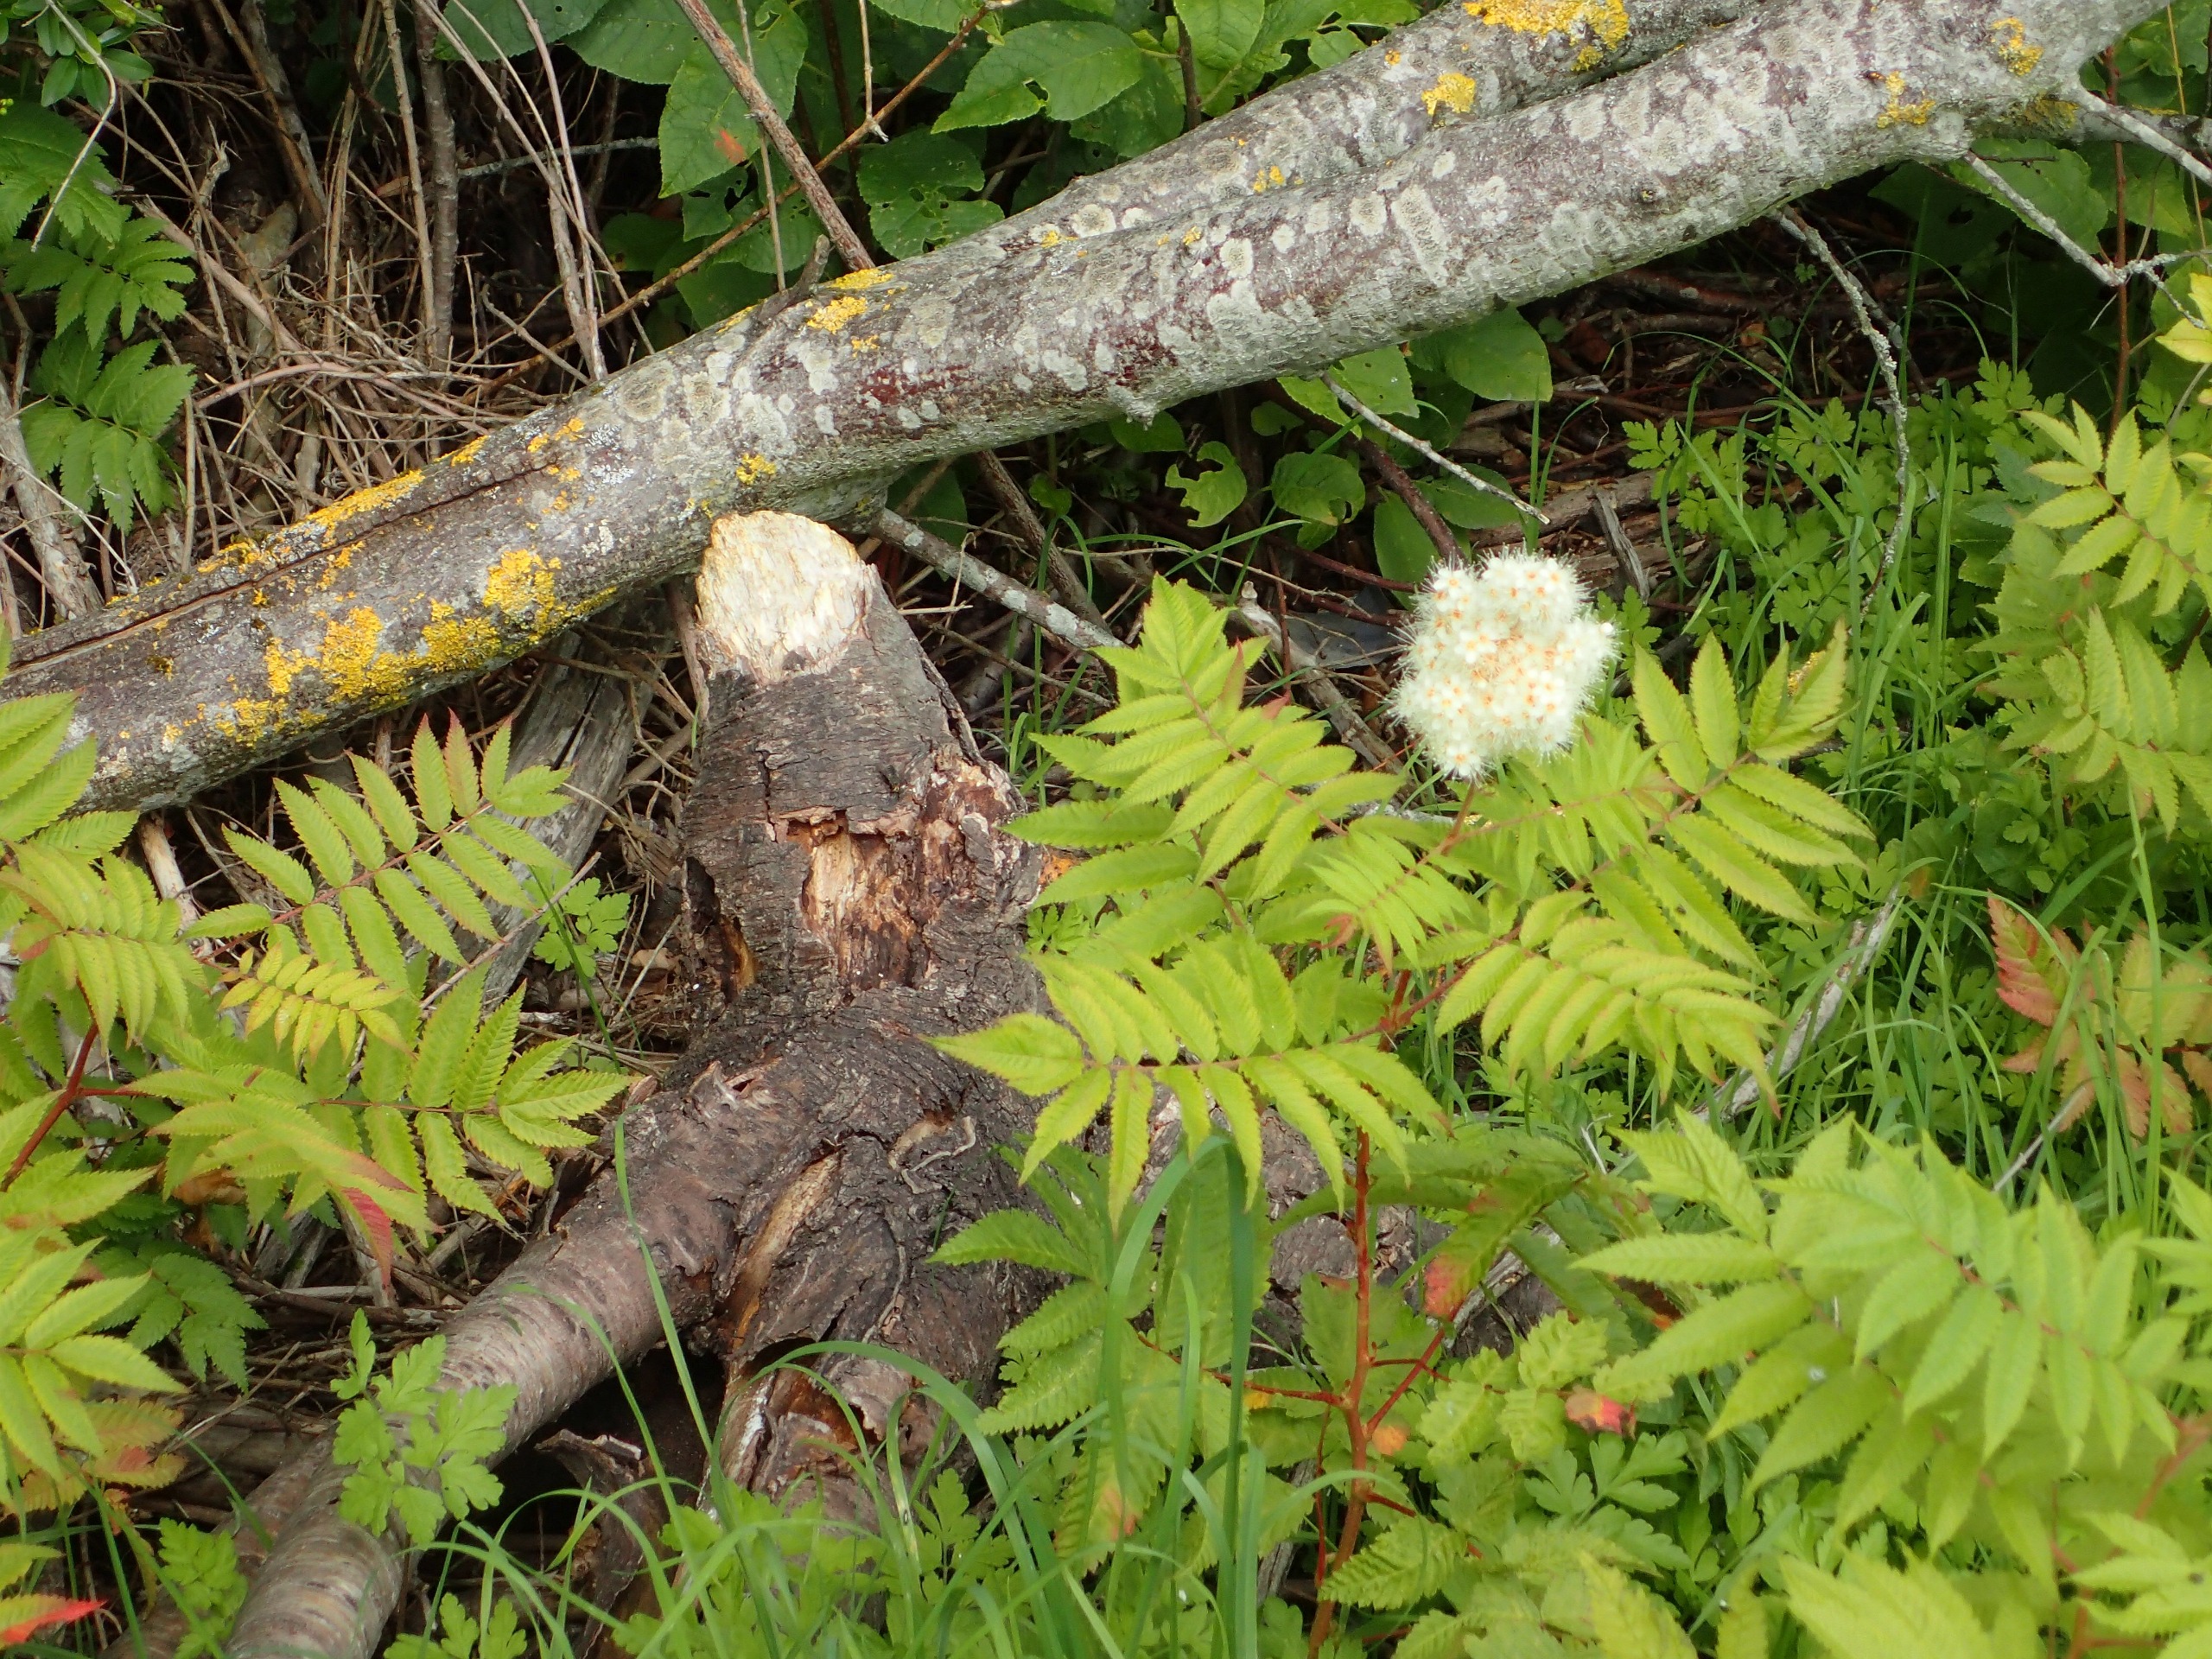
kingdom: Plantae
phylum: Tracheophyta
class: Magnoliopsida
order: Rosales
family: Rosaceae
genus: Sorbaria
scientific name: Sorbaria sorbifolia
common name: Tusindtop
